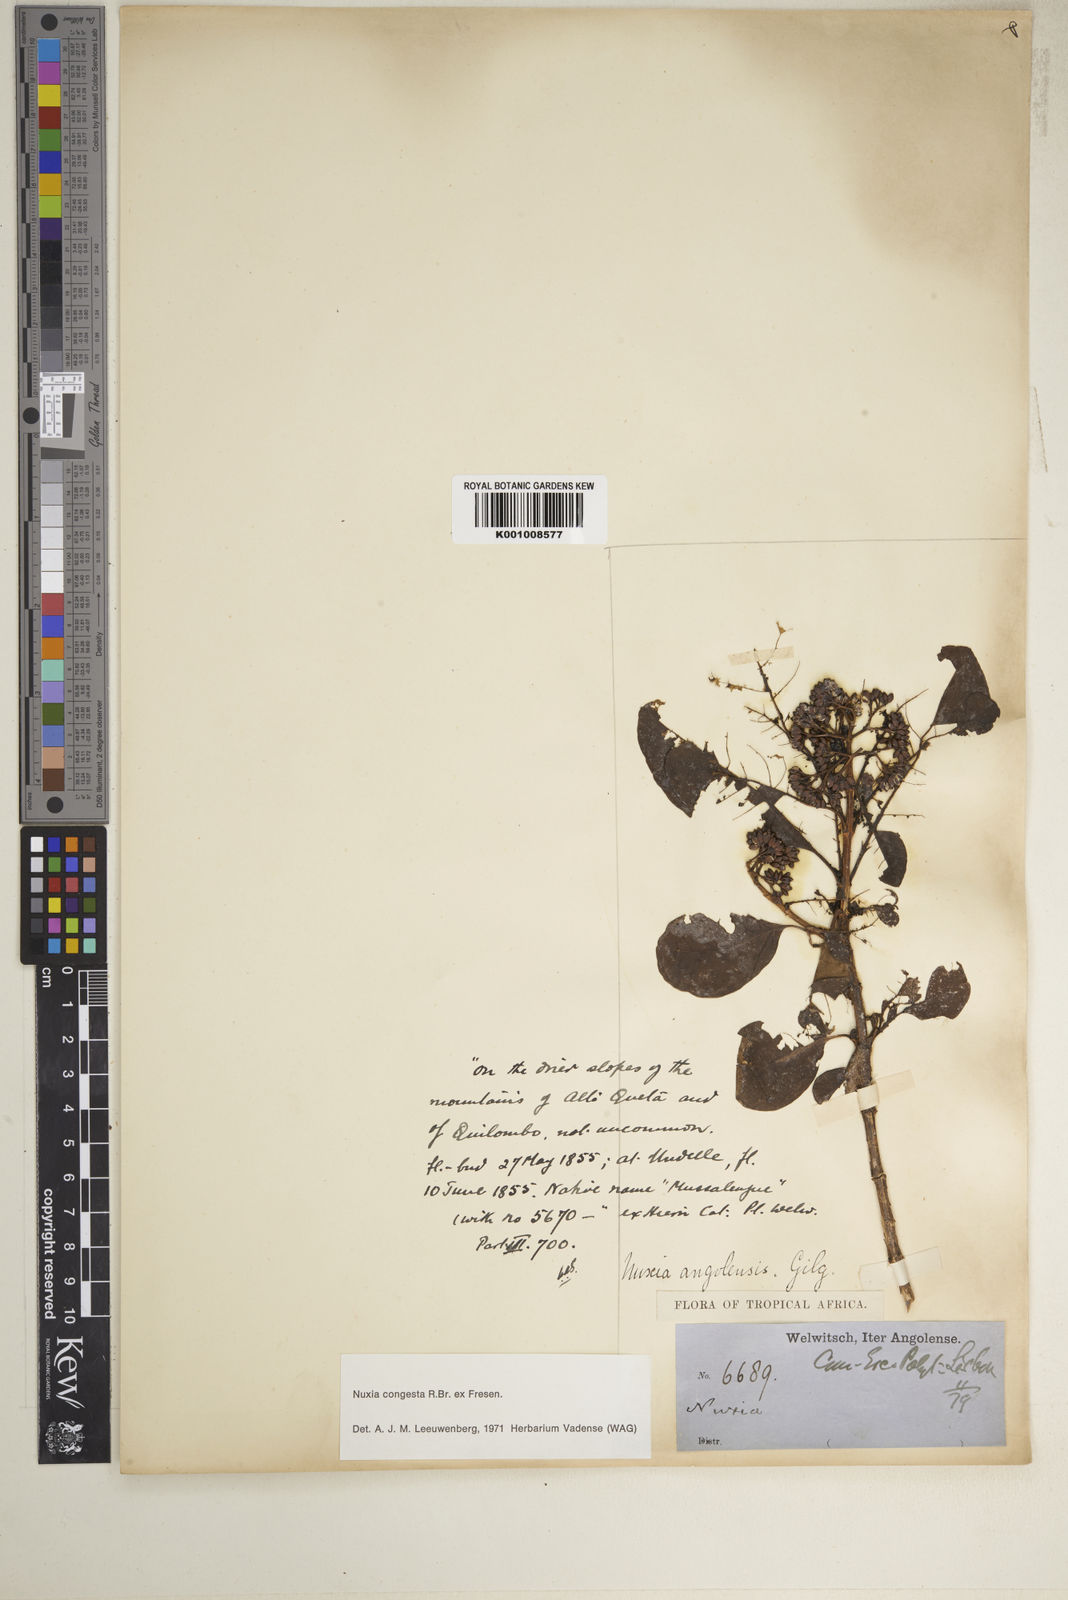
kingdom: Plantae
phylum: Tracheophyta
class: Magnoliopsida
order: Lamiales
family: Stilbaceae
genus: Nuxia
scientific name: Nuxia congesta
